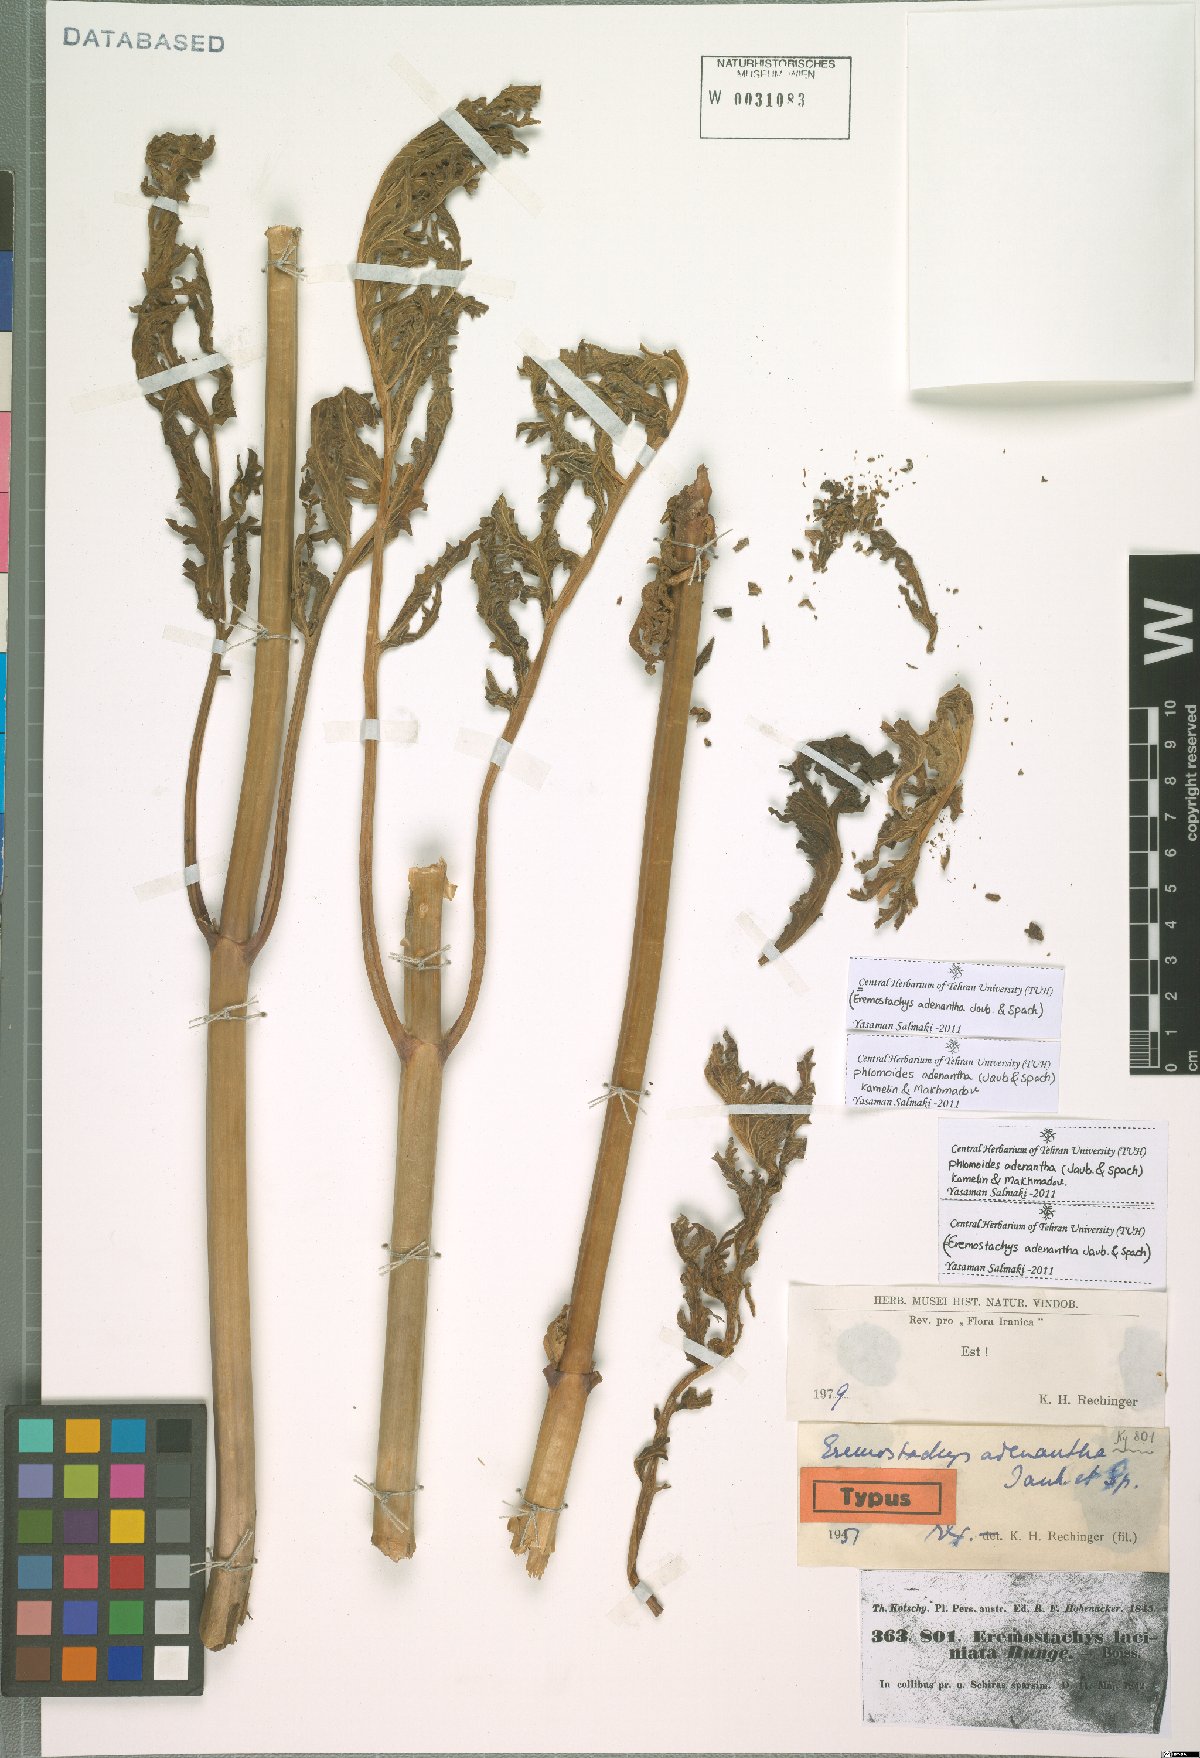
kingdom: Plantae
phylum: Tracheophyta
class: Magnoliopsida
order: Lamiales
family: Lamiaceae
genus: Phlomoides
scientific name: Phlomoides adenantha
